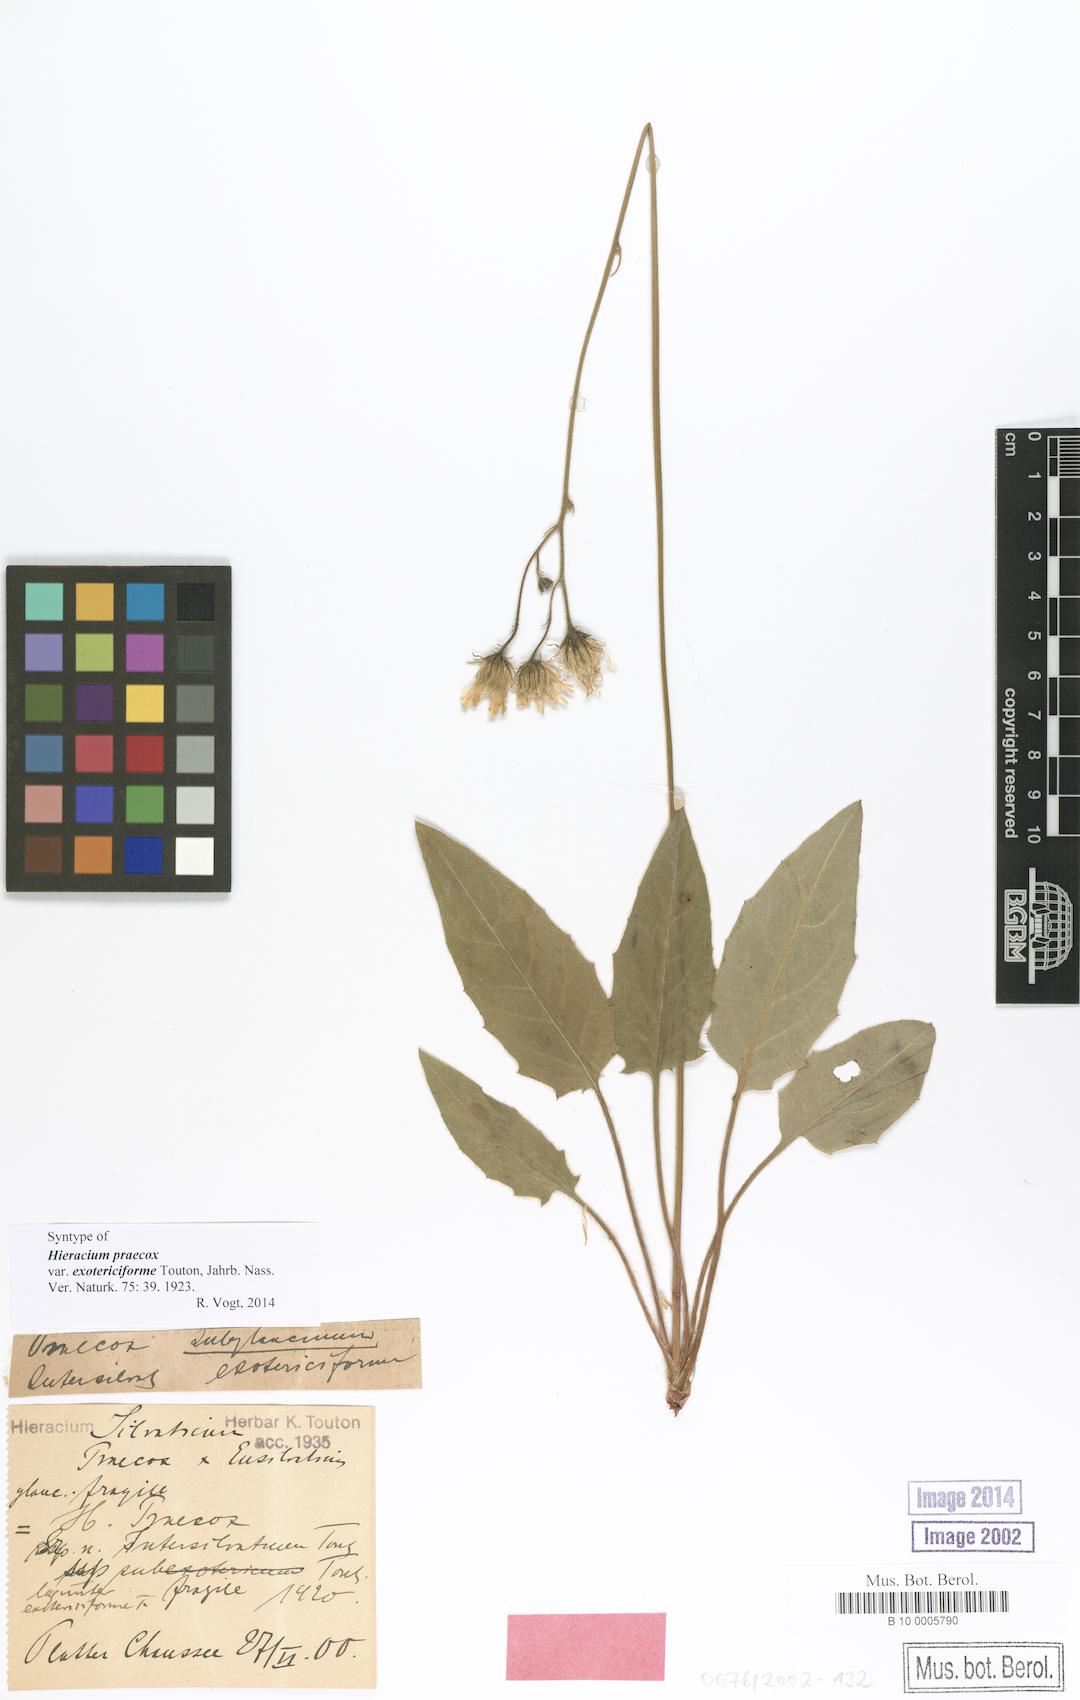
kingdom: Plantae
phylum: Tracheophyta
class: Magnoliopsida
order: Asterales
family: Asteraceae
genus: Hieracium
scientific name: Hieracium praecox
